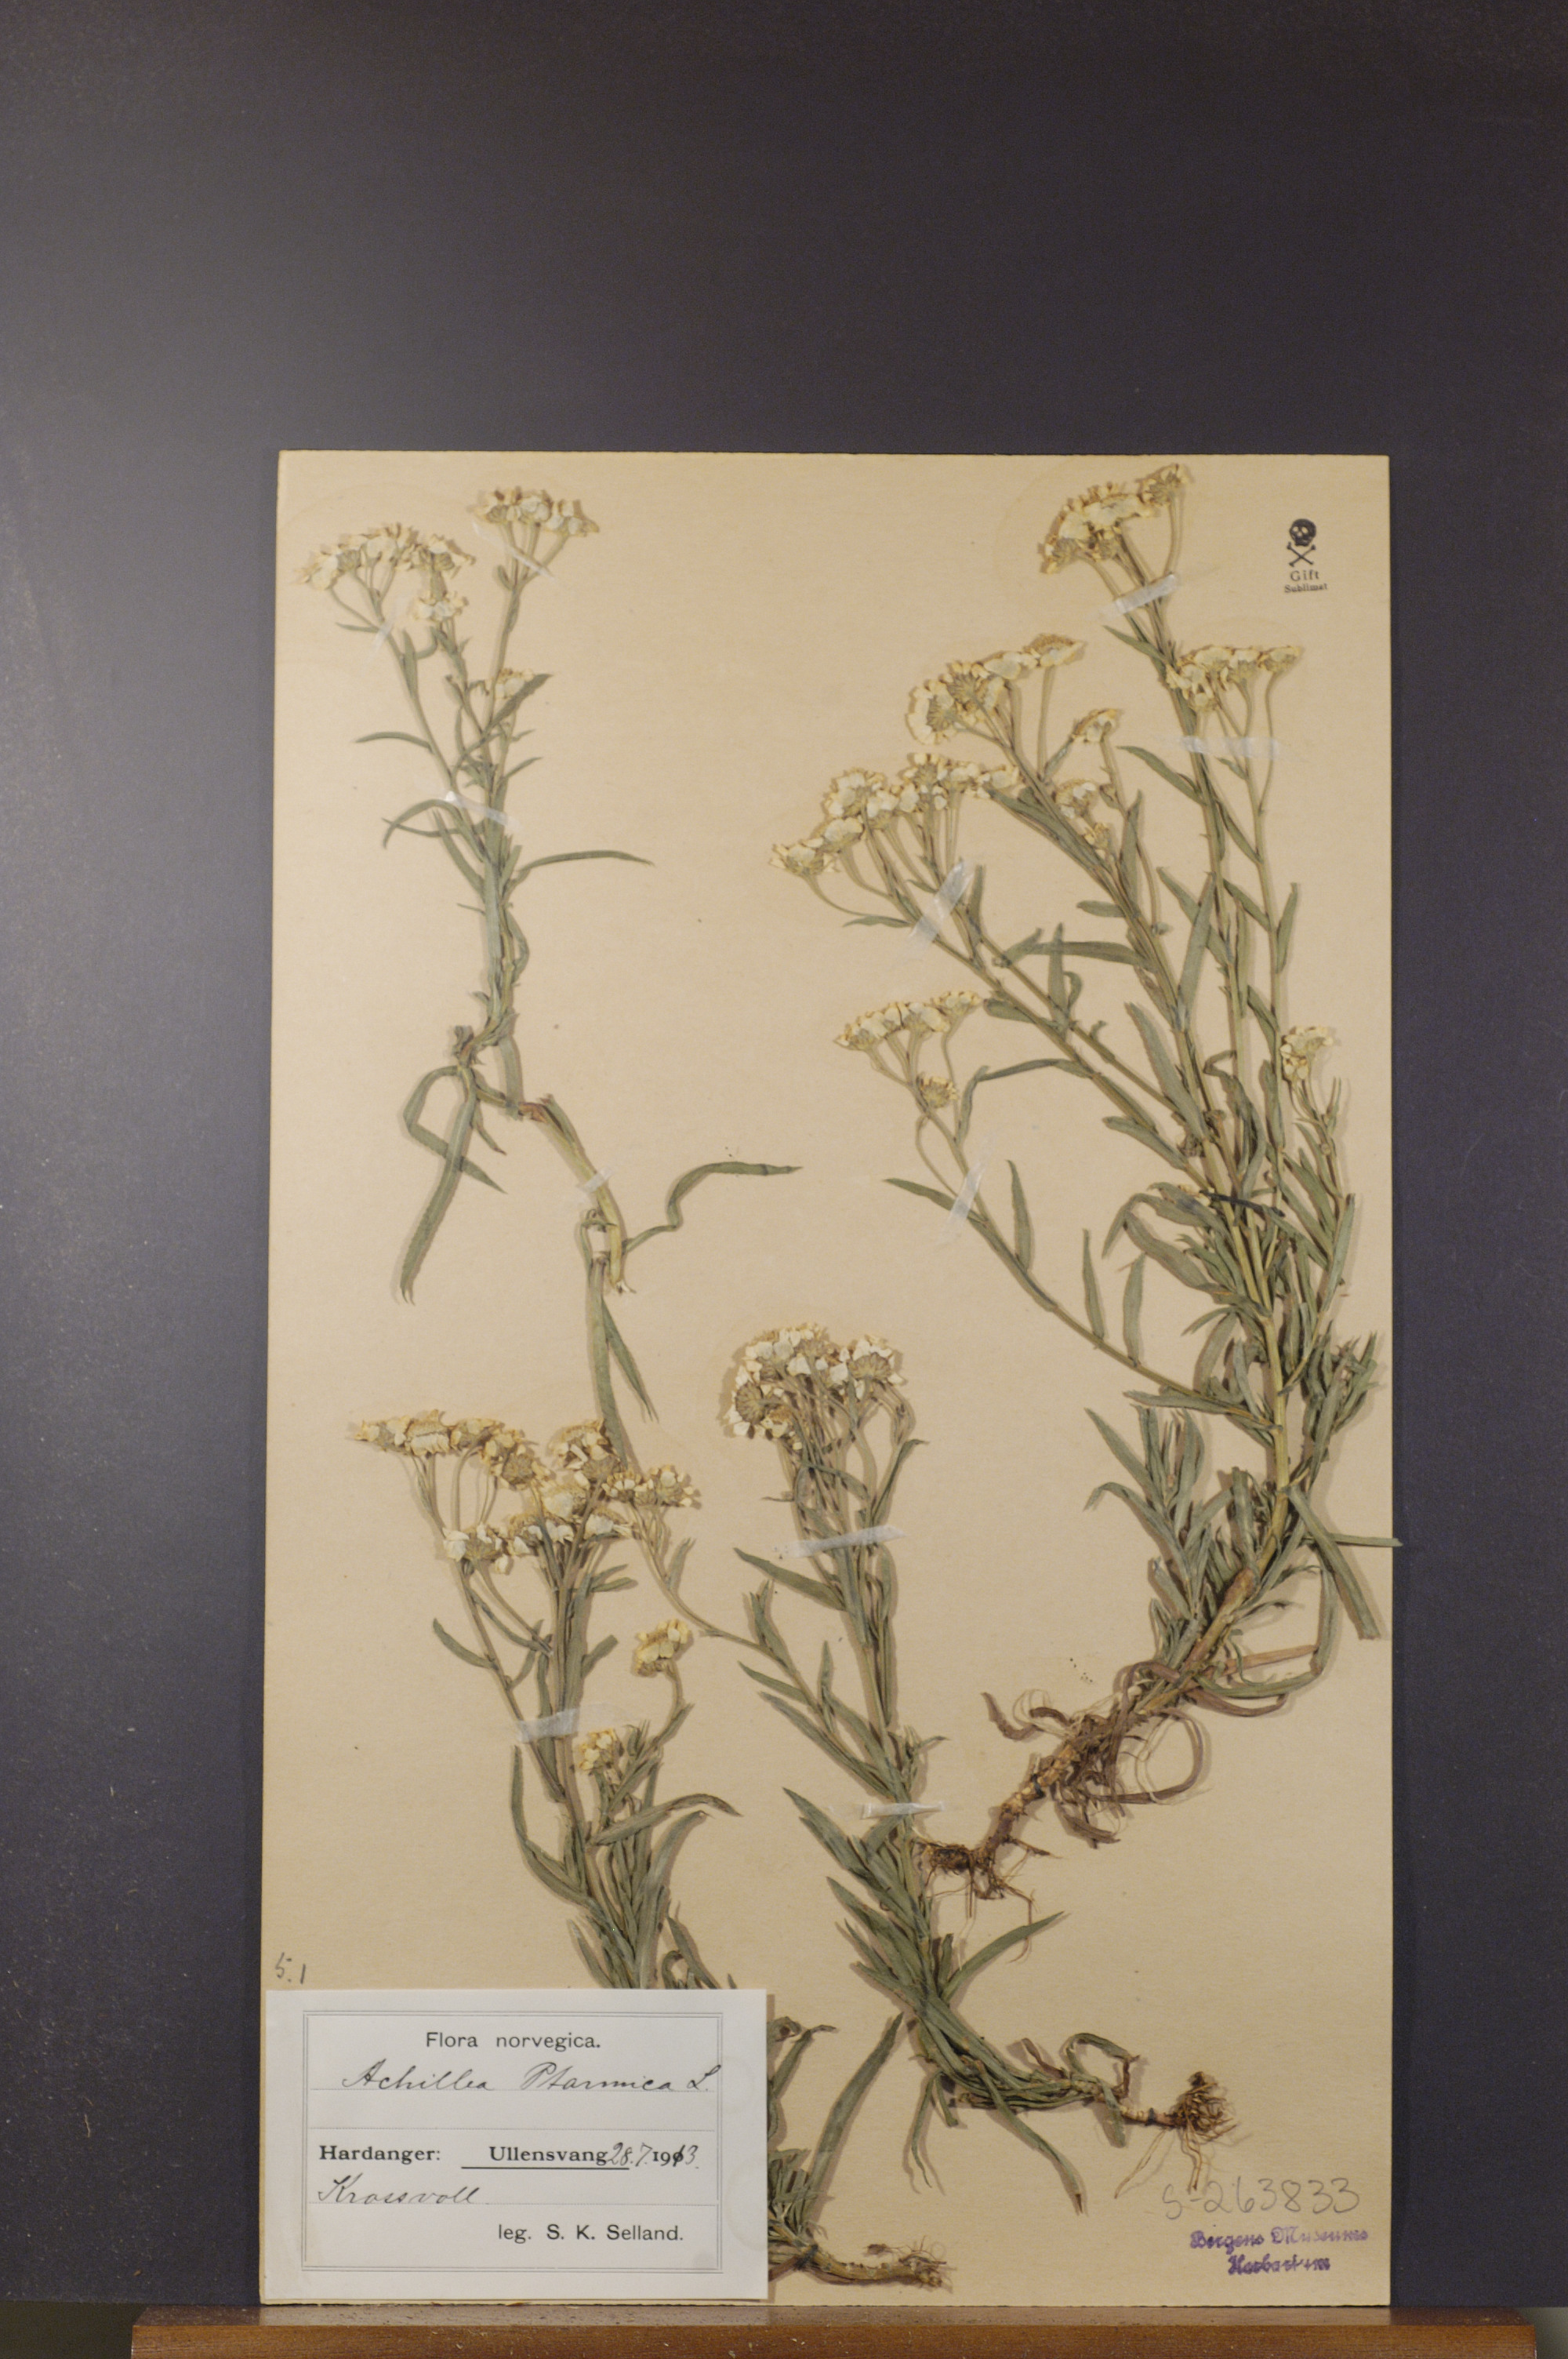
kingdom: Plantae
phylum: Tracheophyta
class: Magnoliopsida
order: Asterales
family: Asteraceae
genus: Achillea
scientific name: Achillea ptarmica
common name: Sneezeweed
